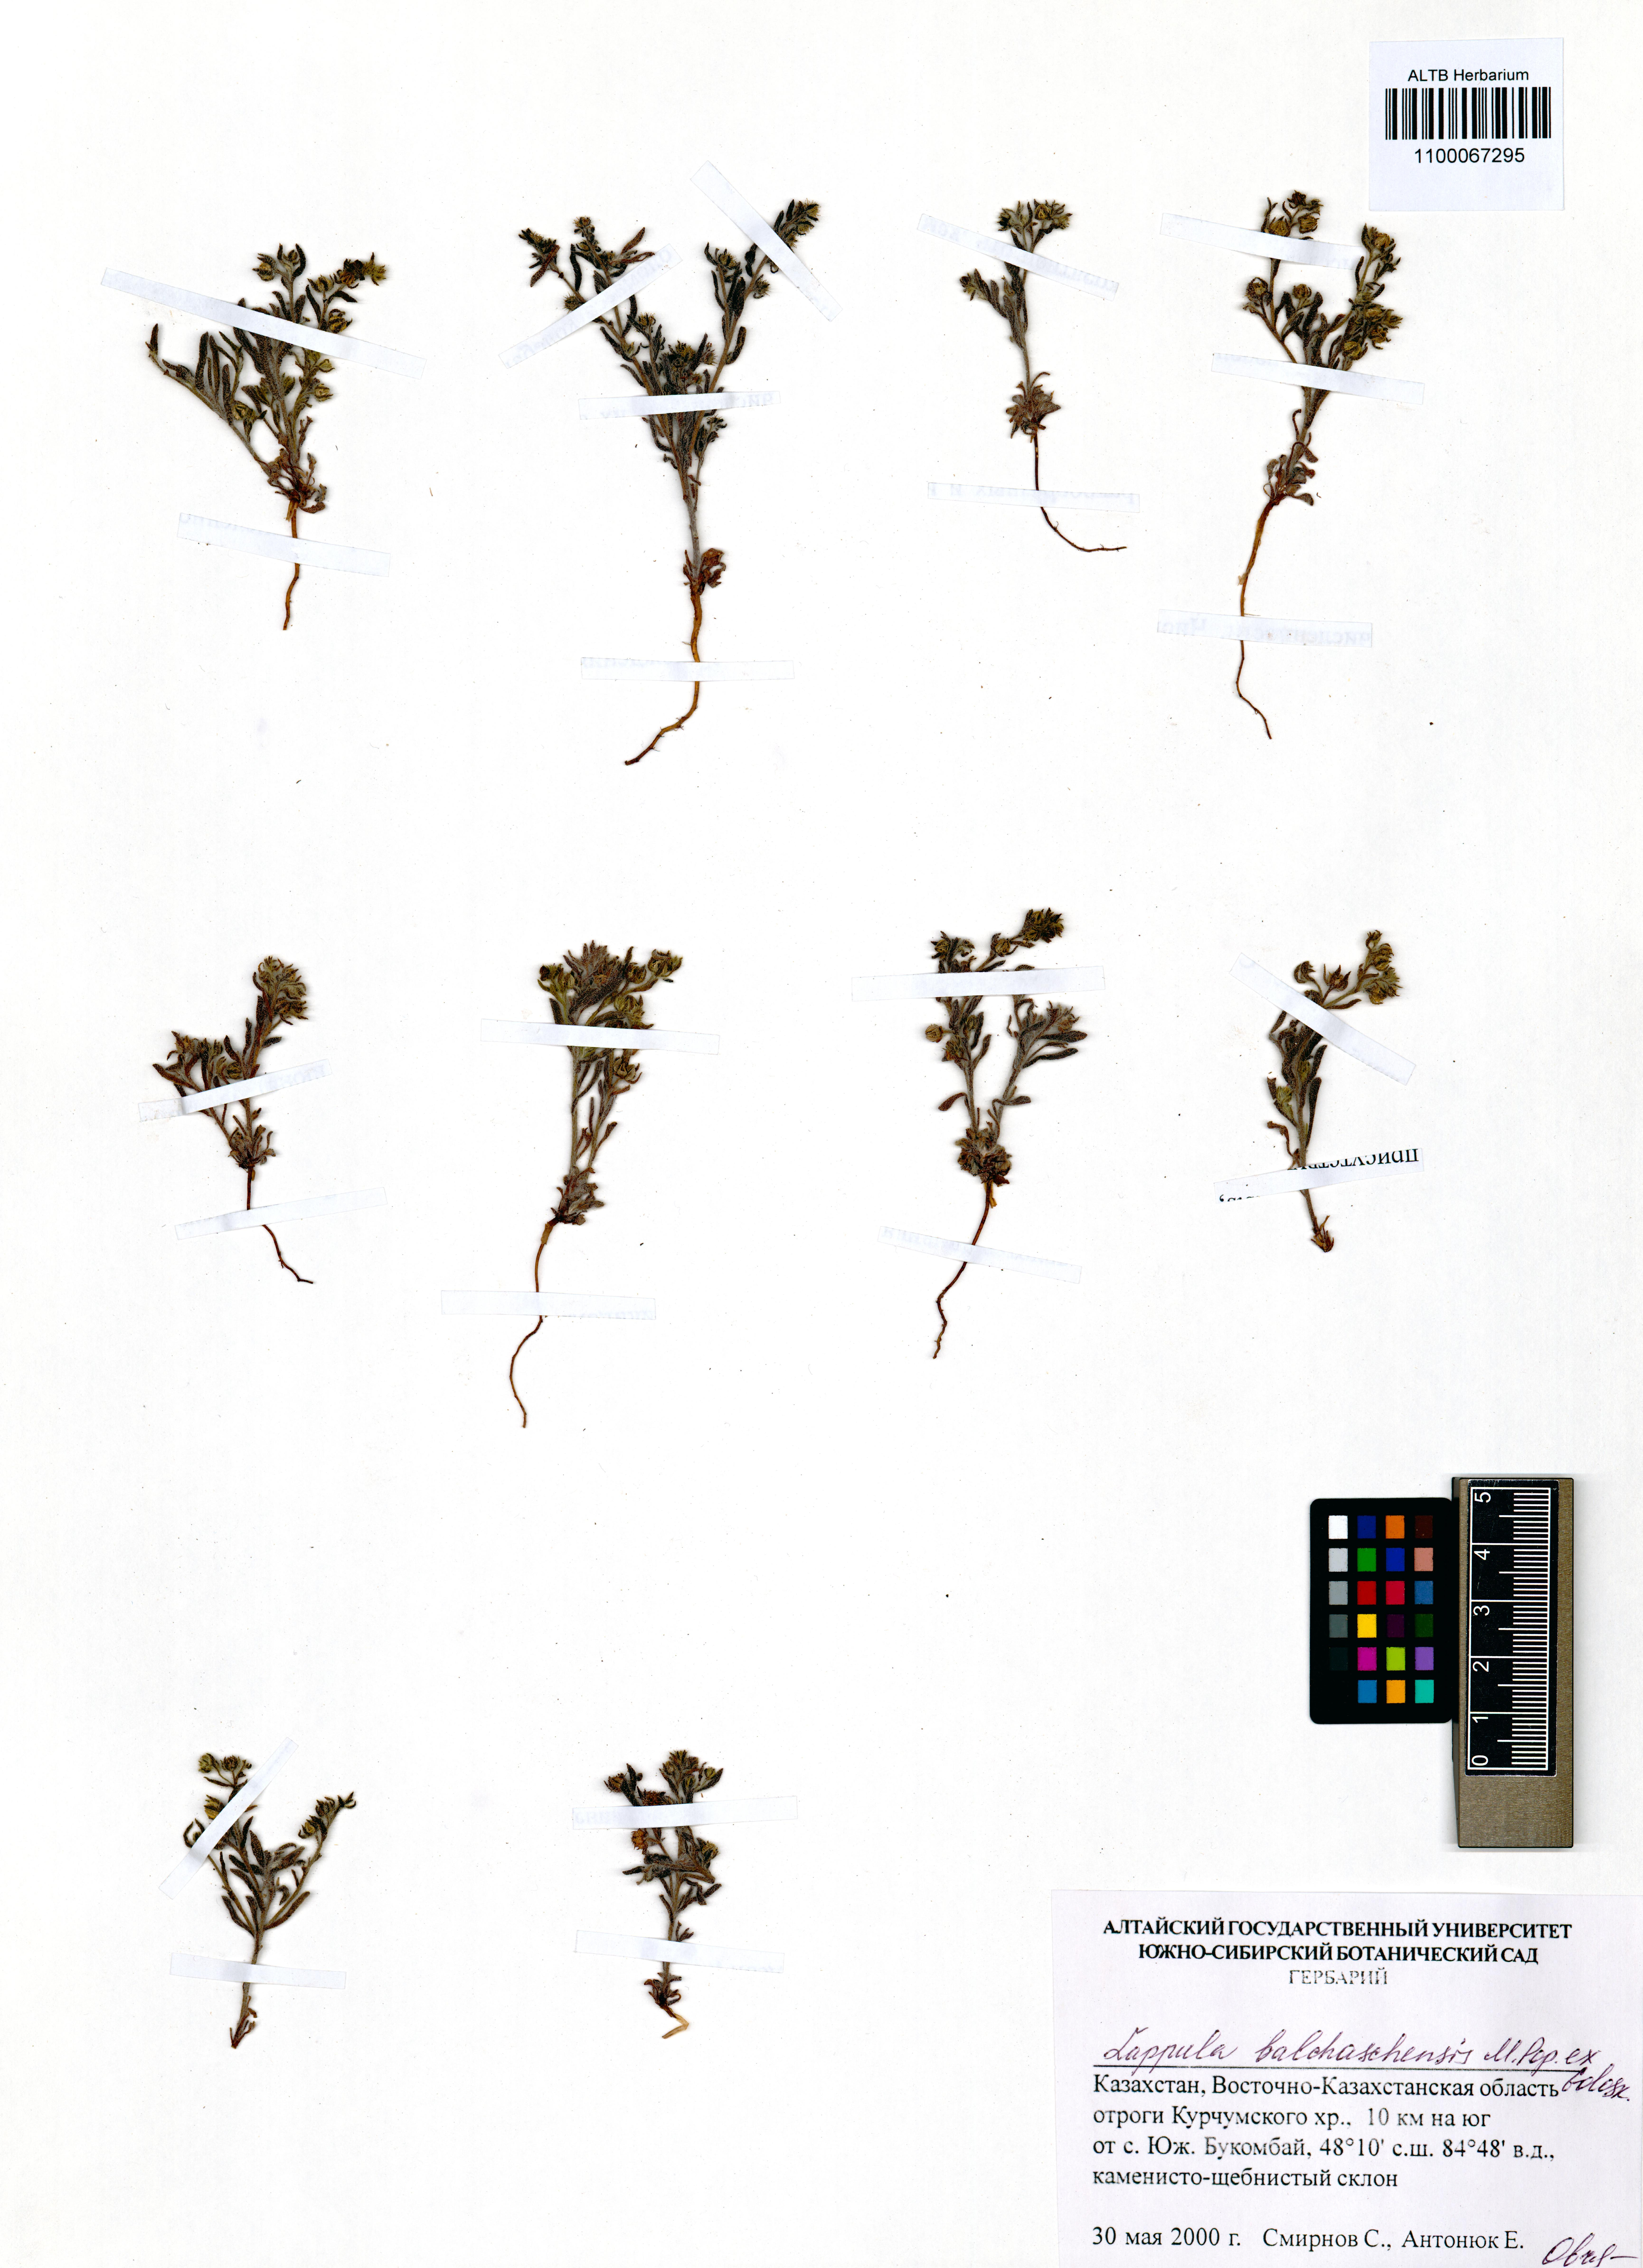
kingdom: Plantae
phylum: Tracheophyta
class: Magnoliopsida
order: Boraginales
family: Boraginaceae
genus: Lappula
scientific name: Lappula balchaschensis
